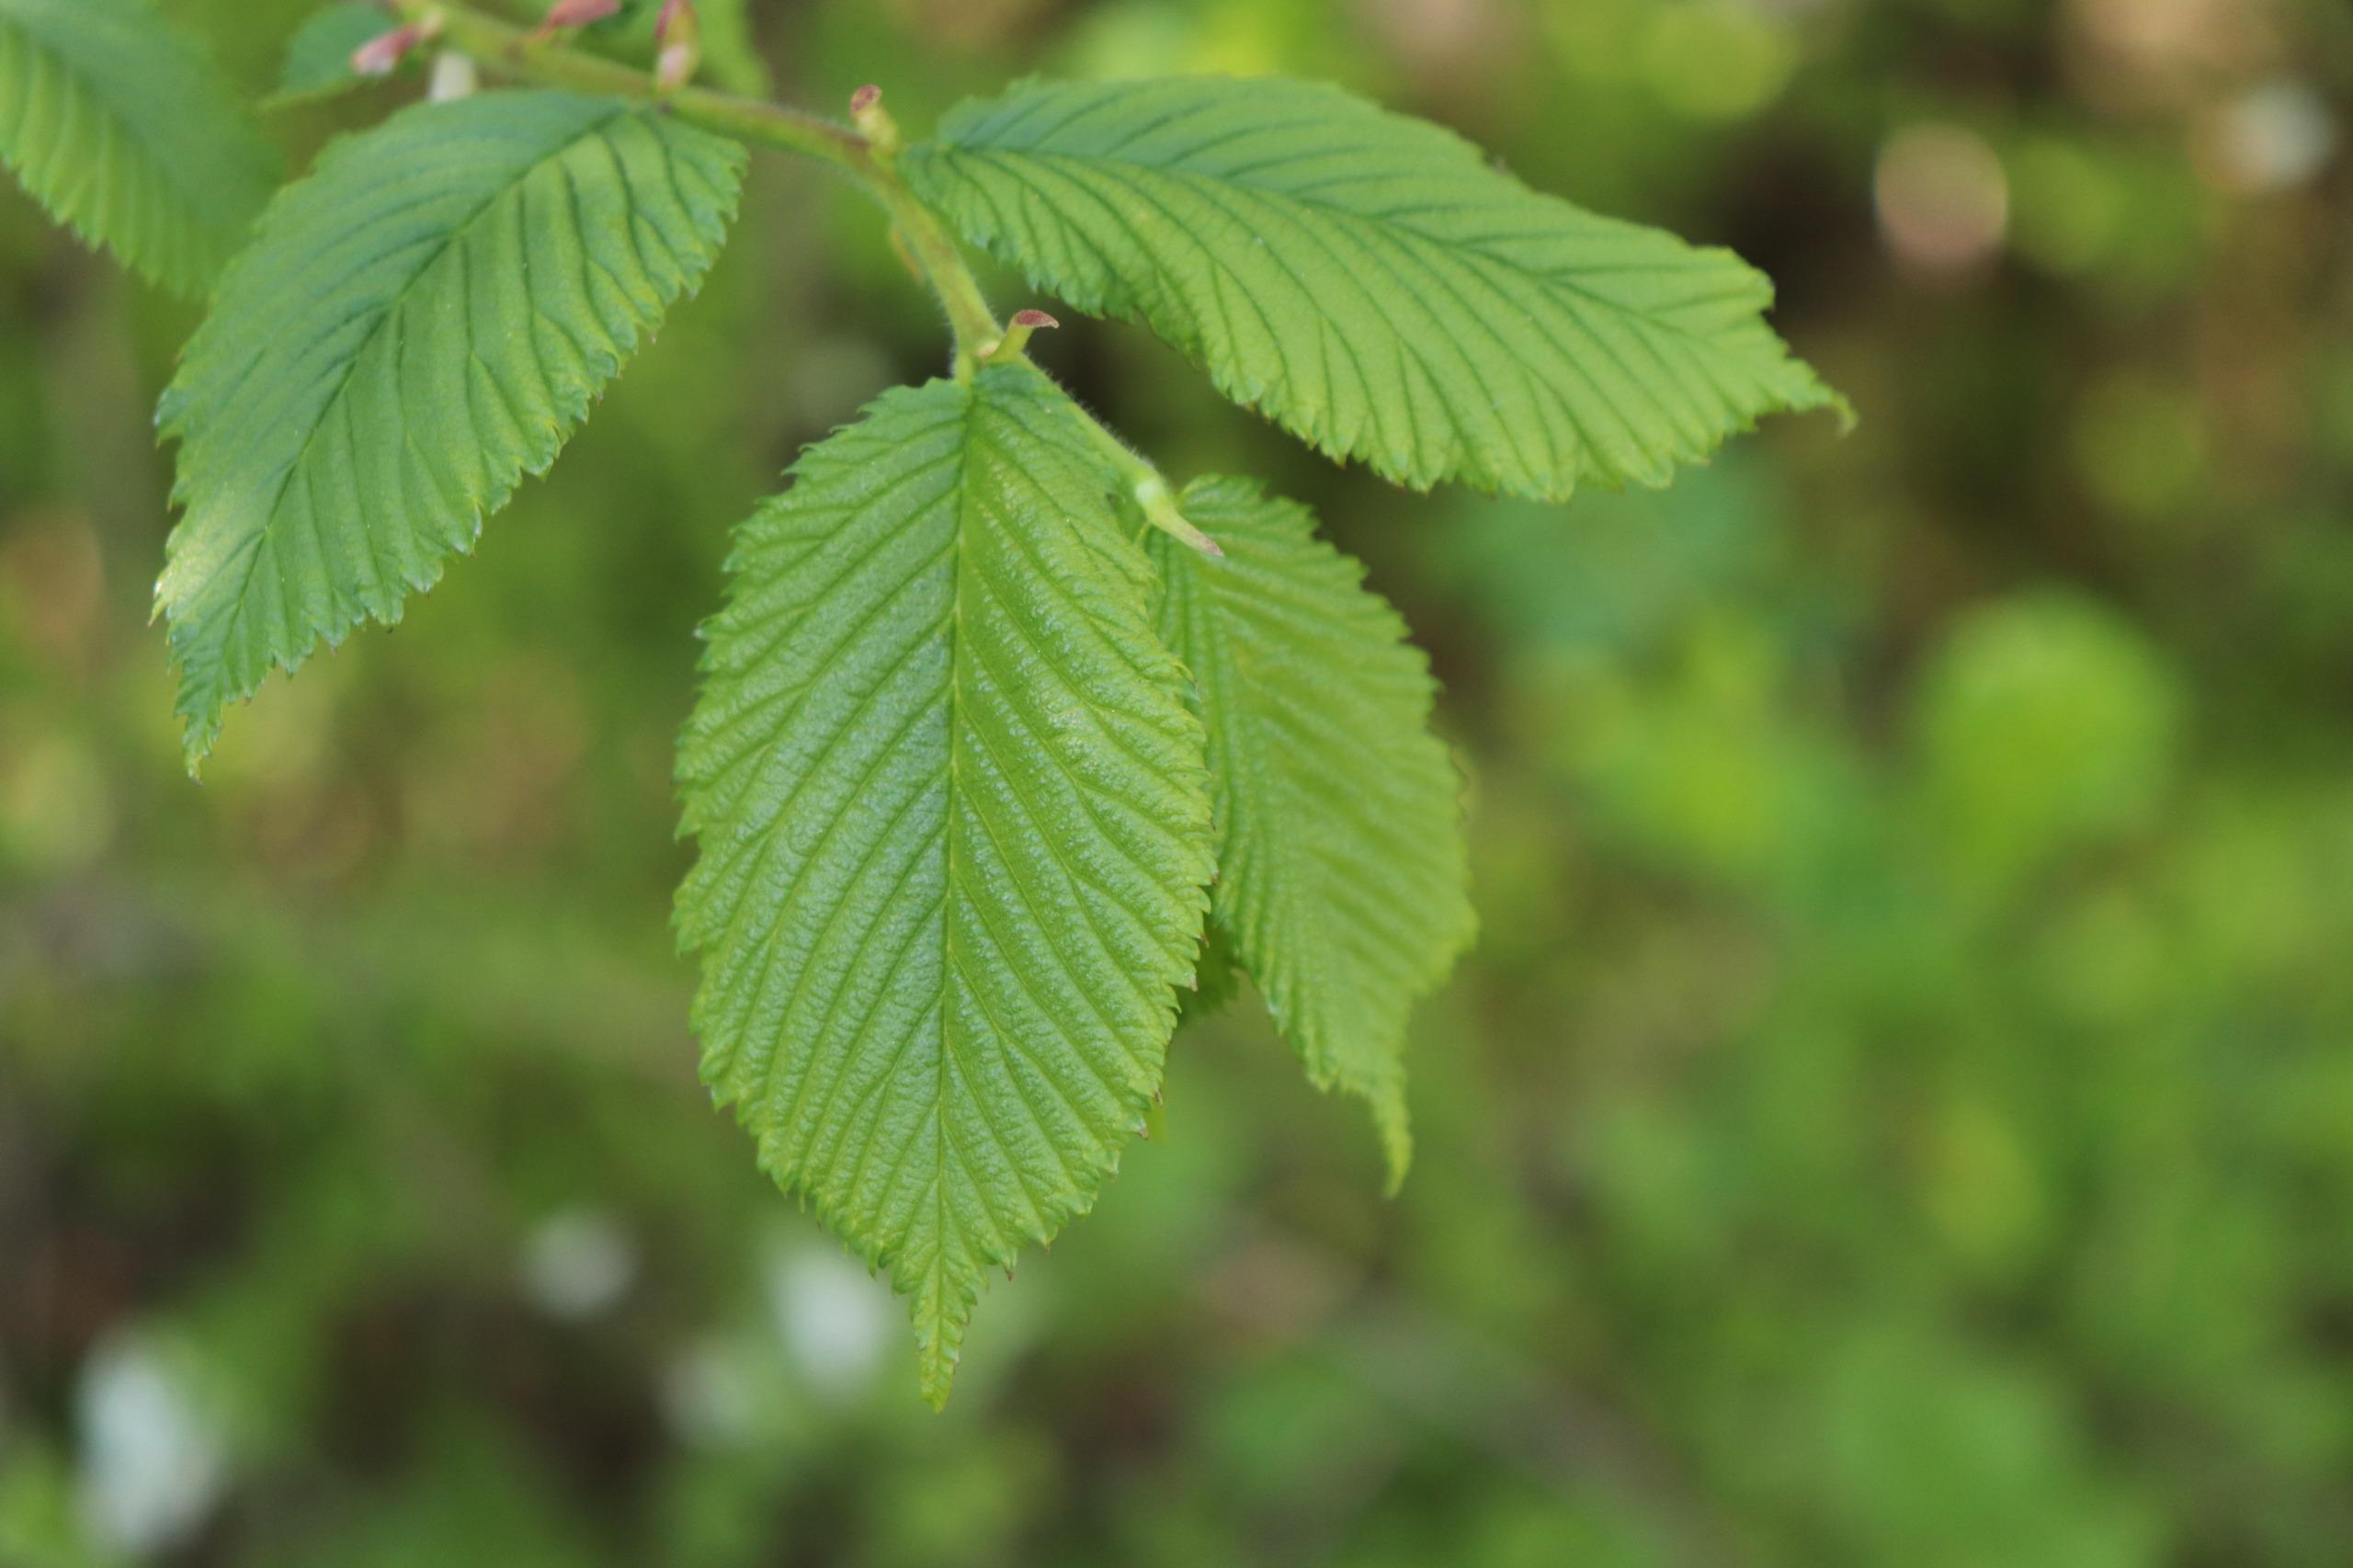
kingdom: Plantae
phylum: Tracheophyta
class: Magnoliopsida
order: Rosales
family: Ulmaceae
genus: Ulmus
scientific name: Ulmus glabra
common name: Skov-elm/storbladet elm
